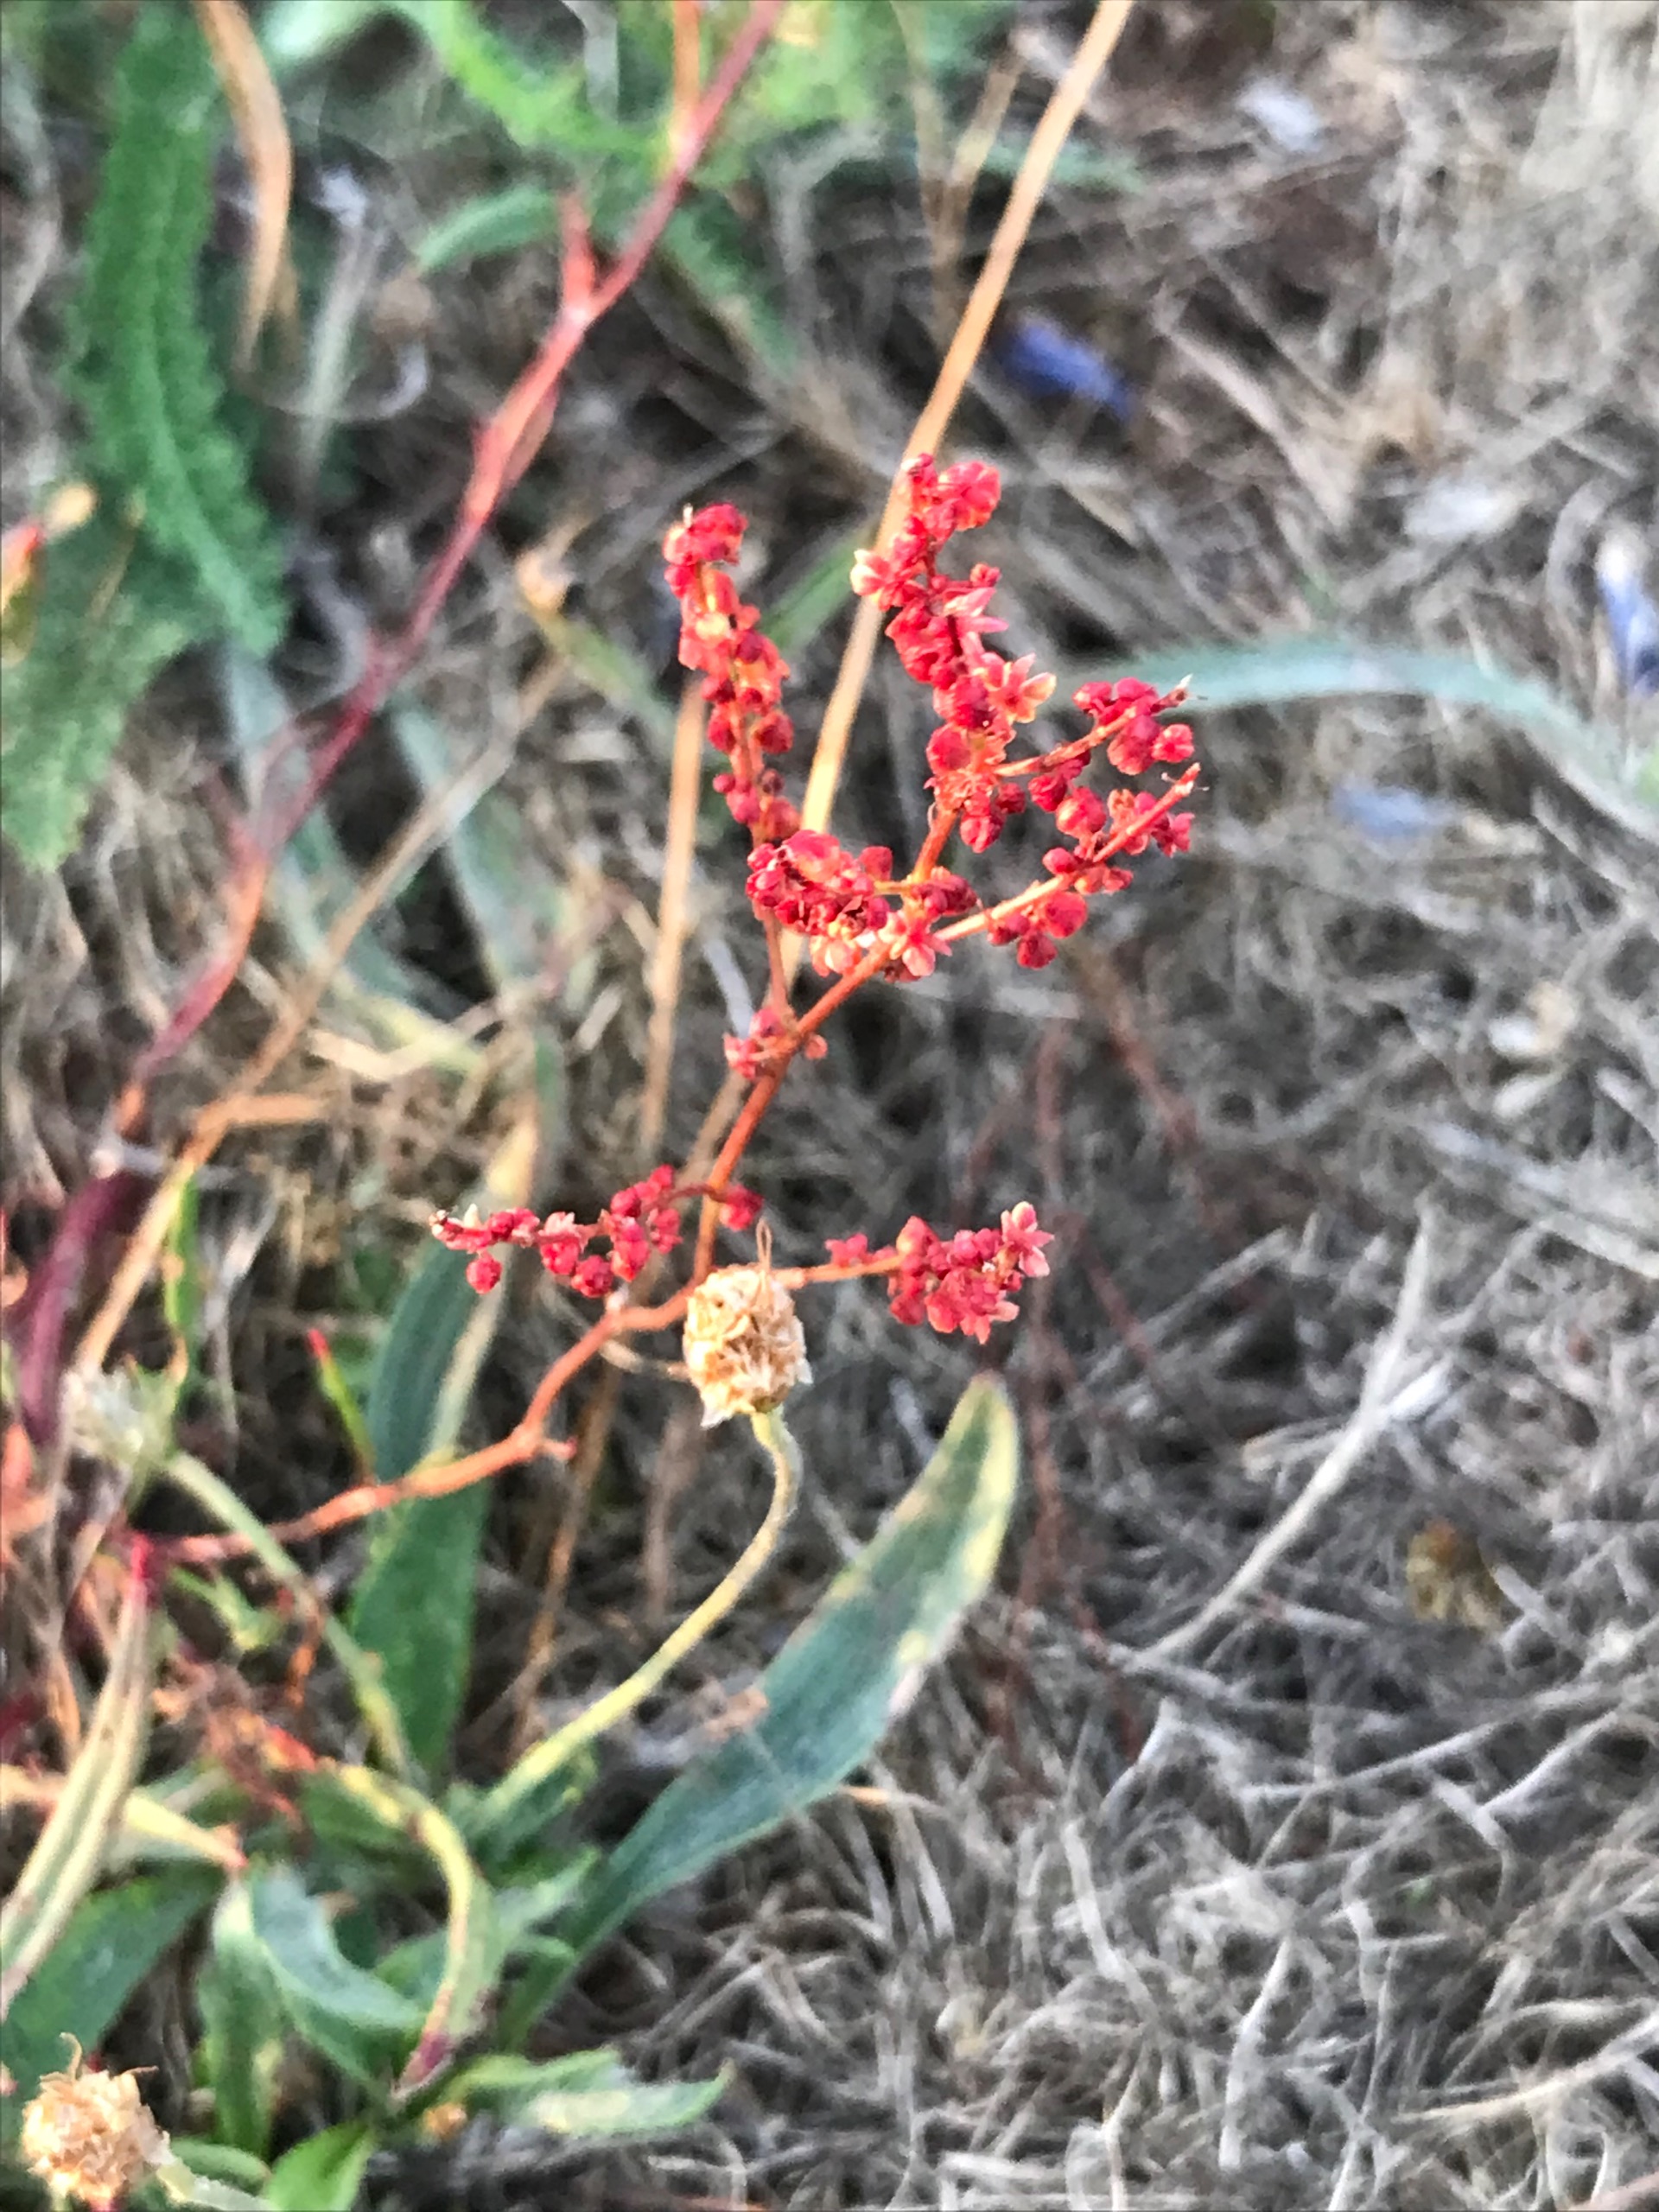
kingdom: Plantae
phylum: Tracheophyta
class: Magnoliopsida
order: Caryophyllales
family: Polygonaceae
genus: Rumex
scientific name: Rumex acetosella
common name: Rødknæ
